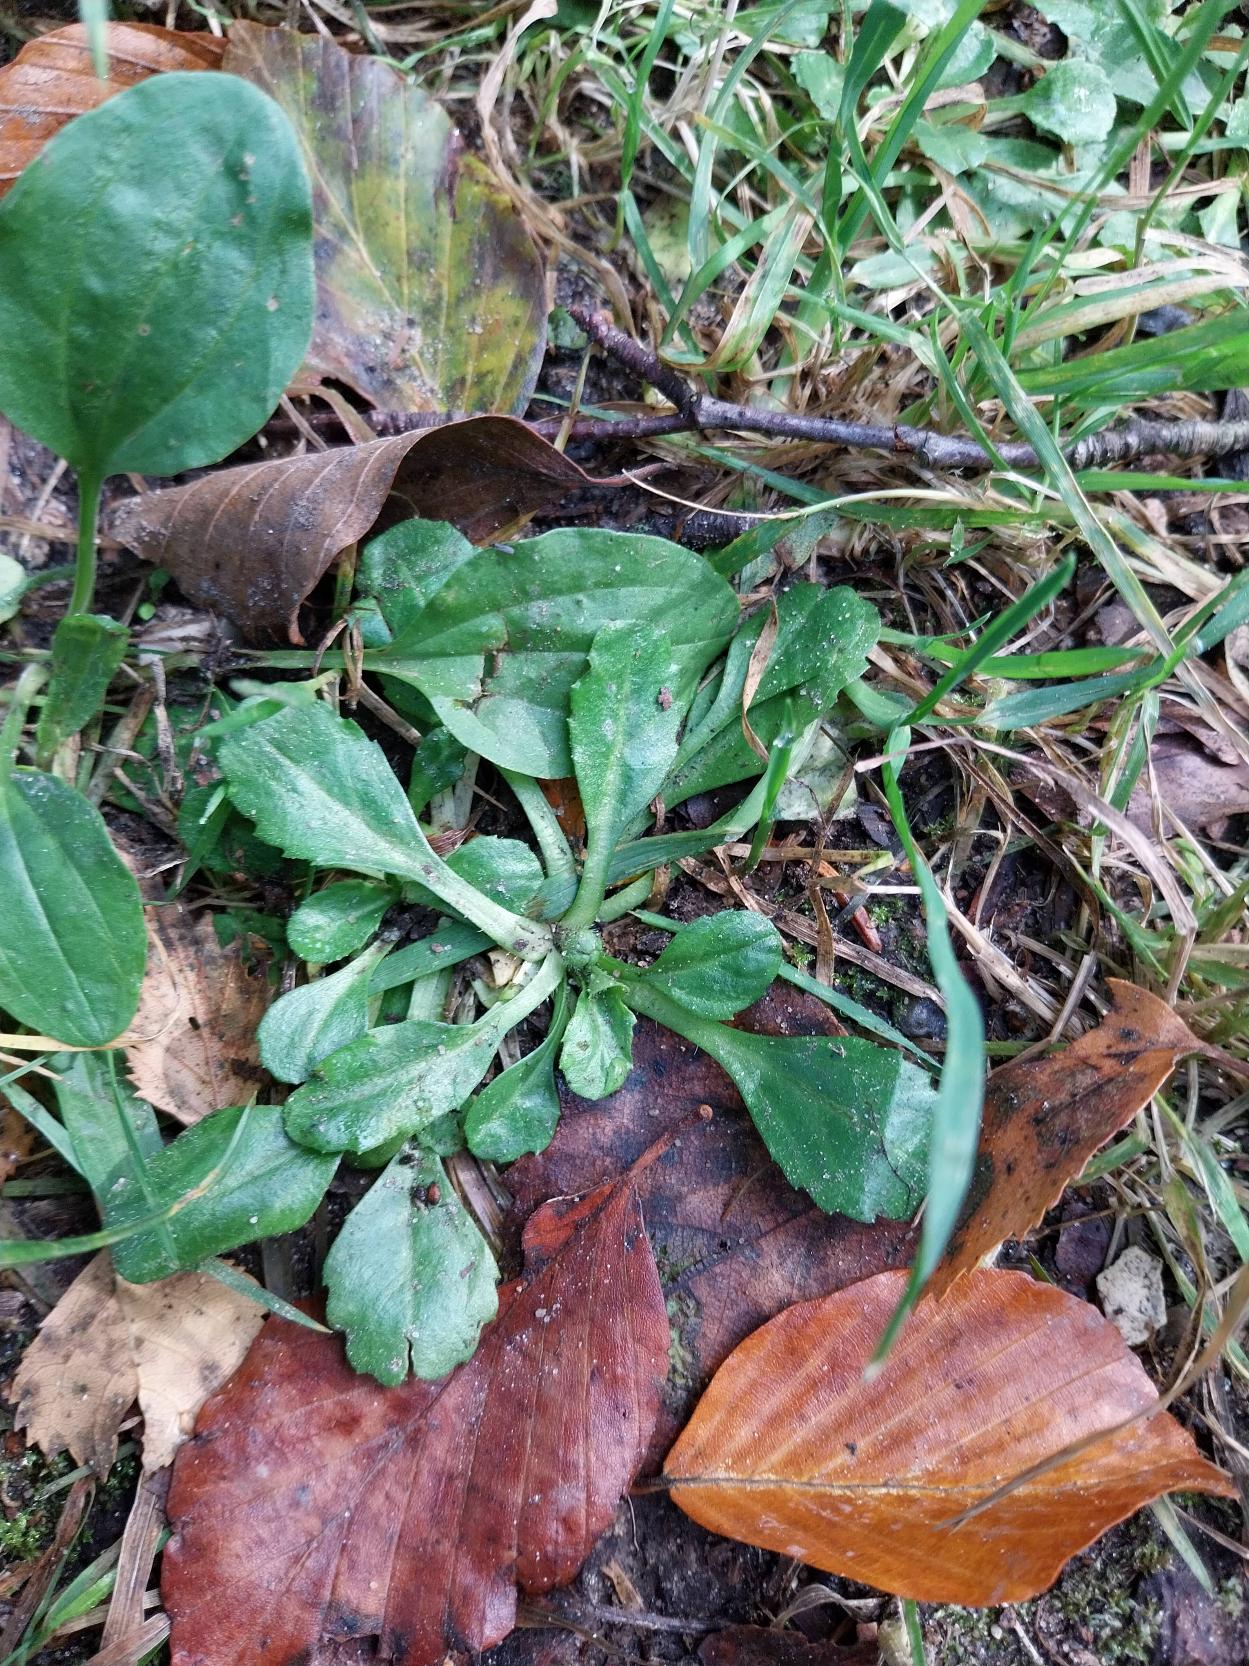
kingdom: Plantae
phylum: Tracheophyta
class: Magnoliopsida
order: Asterales
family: Asteraceae
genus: Bellis
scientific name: Bellis perennis
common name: Tusindfryd
